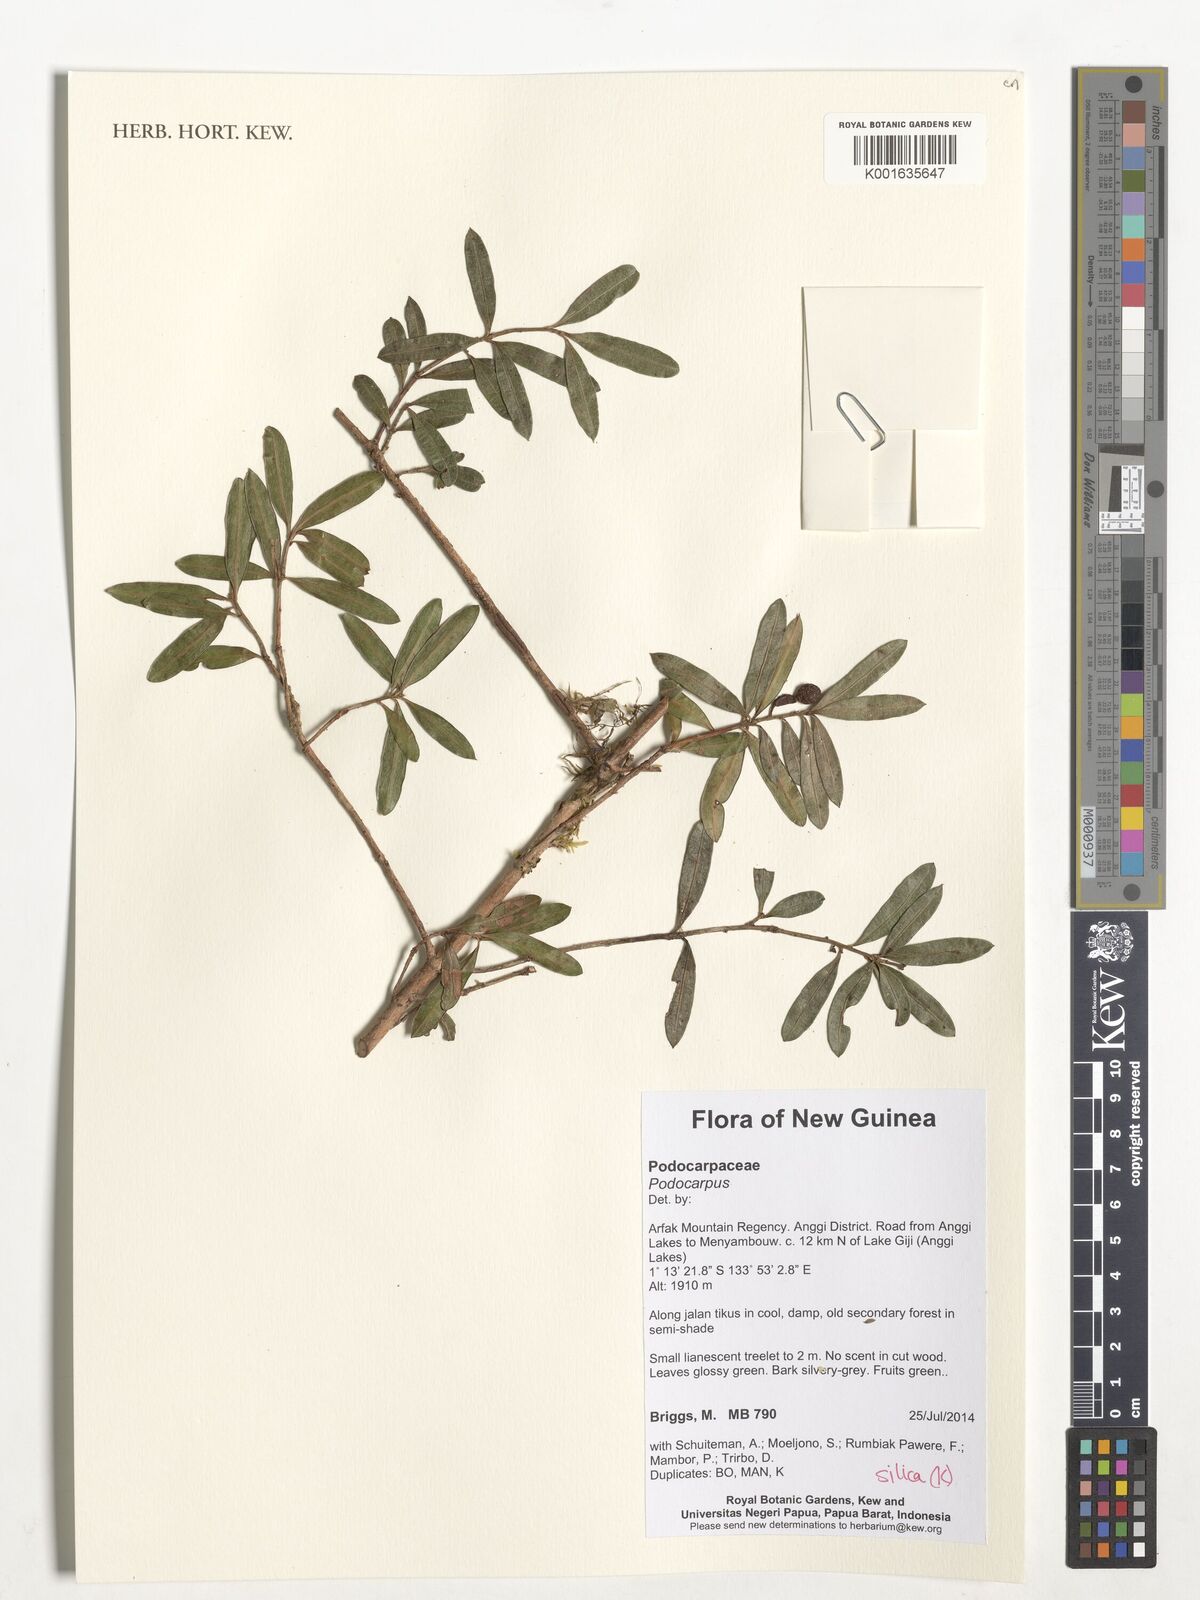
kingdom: Plantae
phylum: Tracheophyta
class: Pinopsida
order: Pinales
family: Podocarpaceae
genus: Podocarpus
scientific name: Podocarpus
